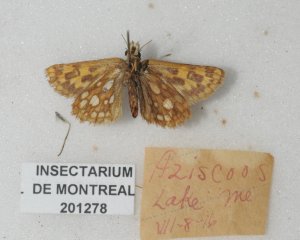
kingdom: Animalia
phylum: Arthropoda
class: Insecta
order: Lepidoptera
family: Hesperiidae
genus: Carterocephalus
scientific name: Carterocephalus palaemon
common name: Chequered Skipper
